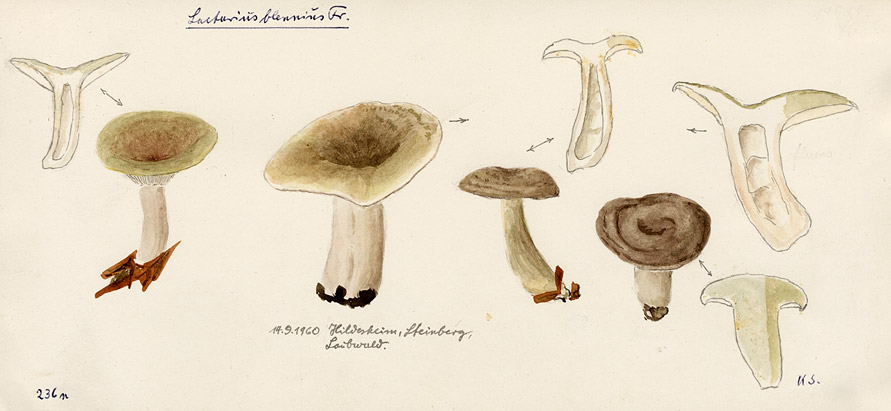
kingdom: Fungi
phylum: Basidiomycota
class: Agaricomycetes
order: Russulales
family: Russulaceae
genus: Lactarius
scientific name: Lactarius blennius
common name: Beech milkcap
